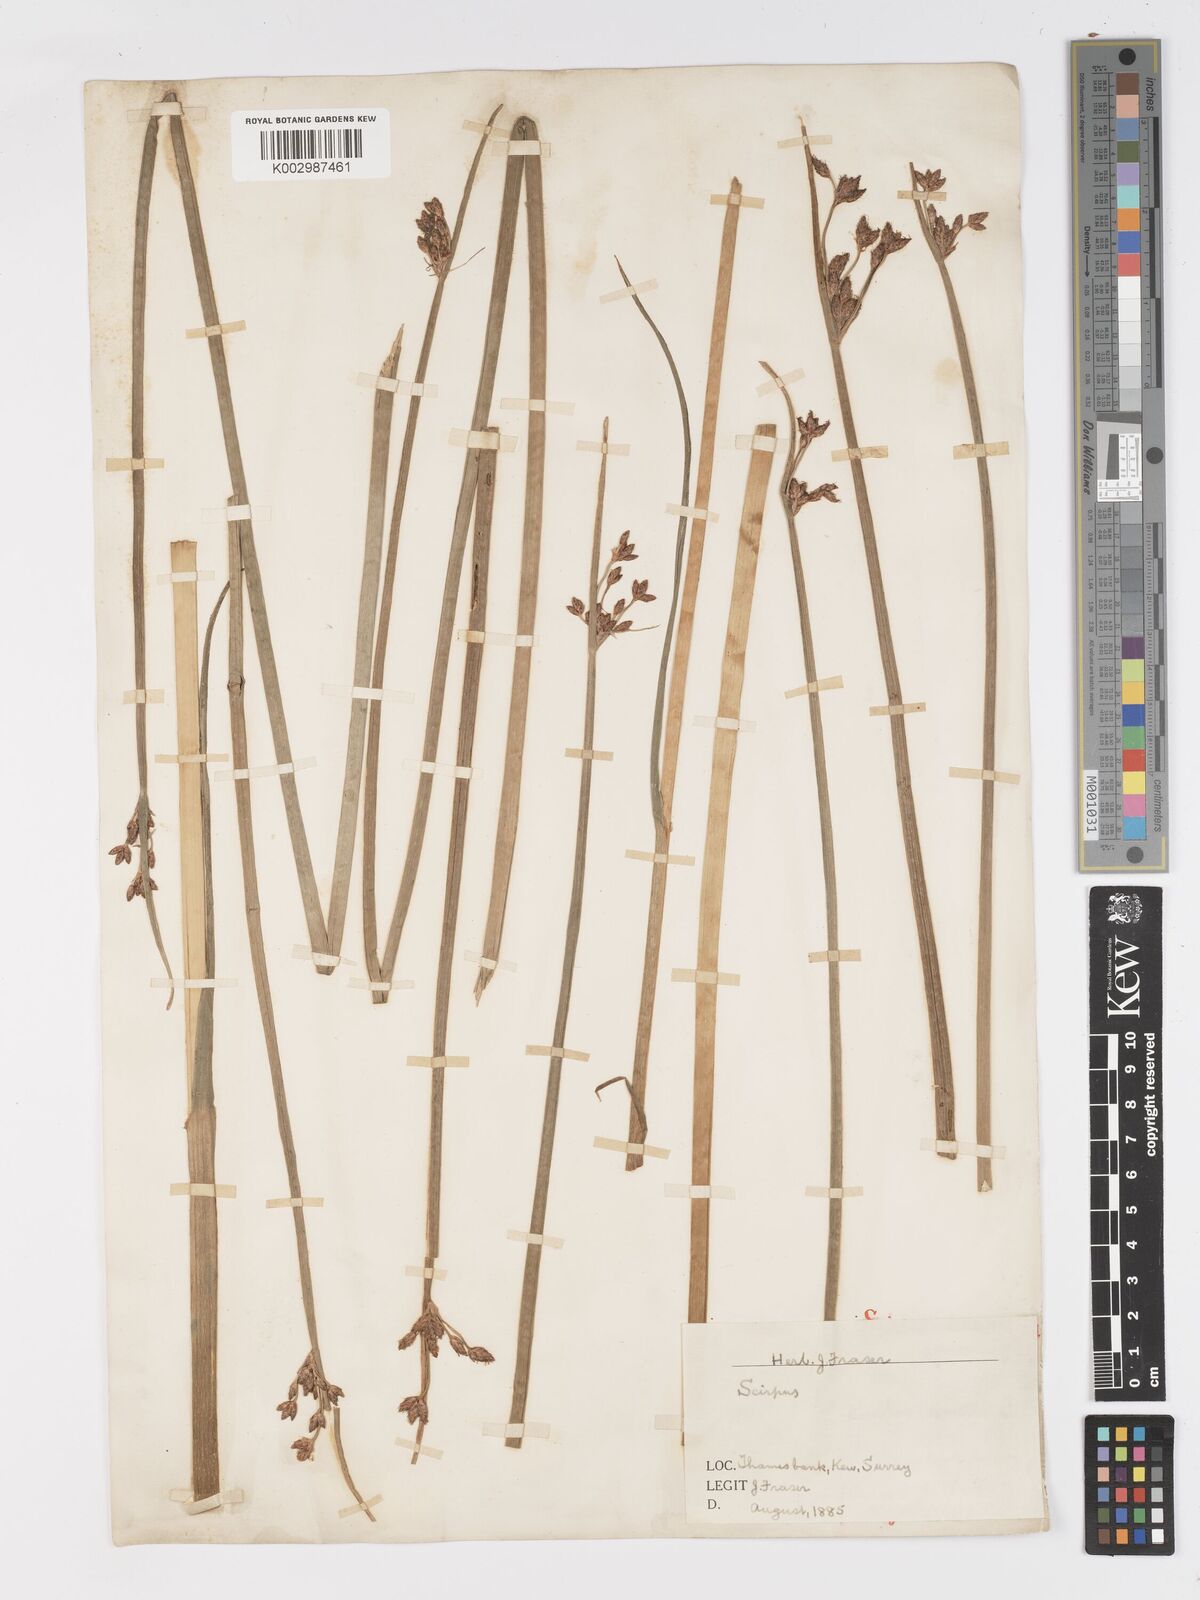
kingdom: Plantae
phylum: Tracheophyta
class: Liliopsida
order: Poales
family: Cyperaceae
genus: Schoenoplectus
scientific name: Schoenoplectus carinatus
